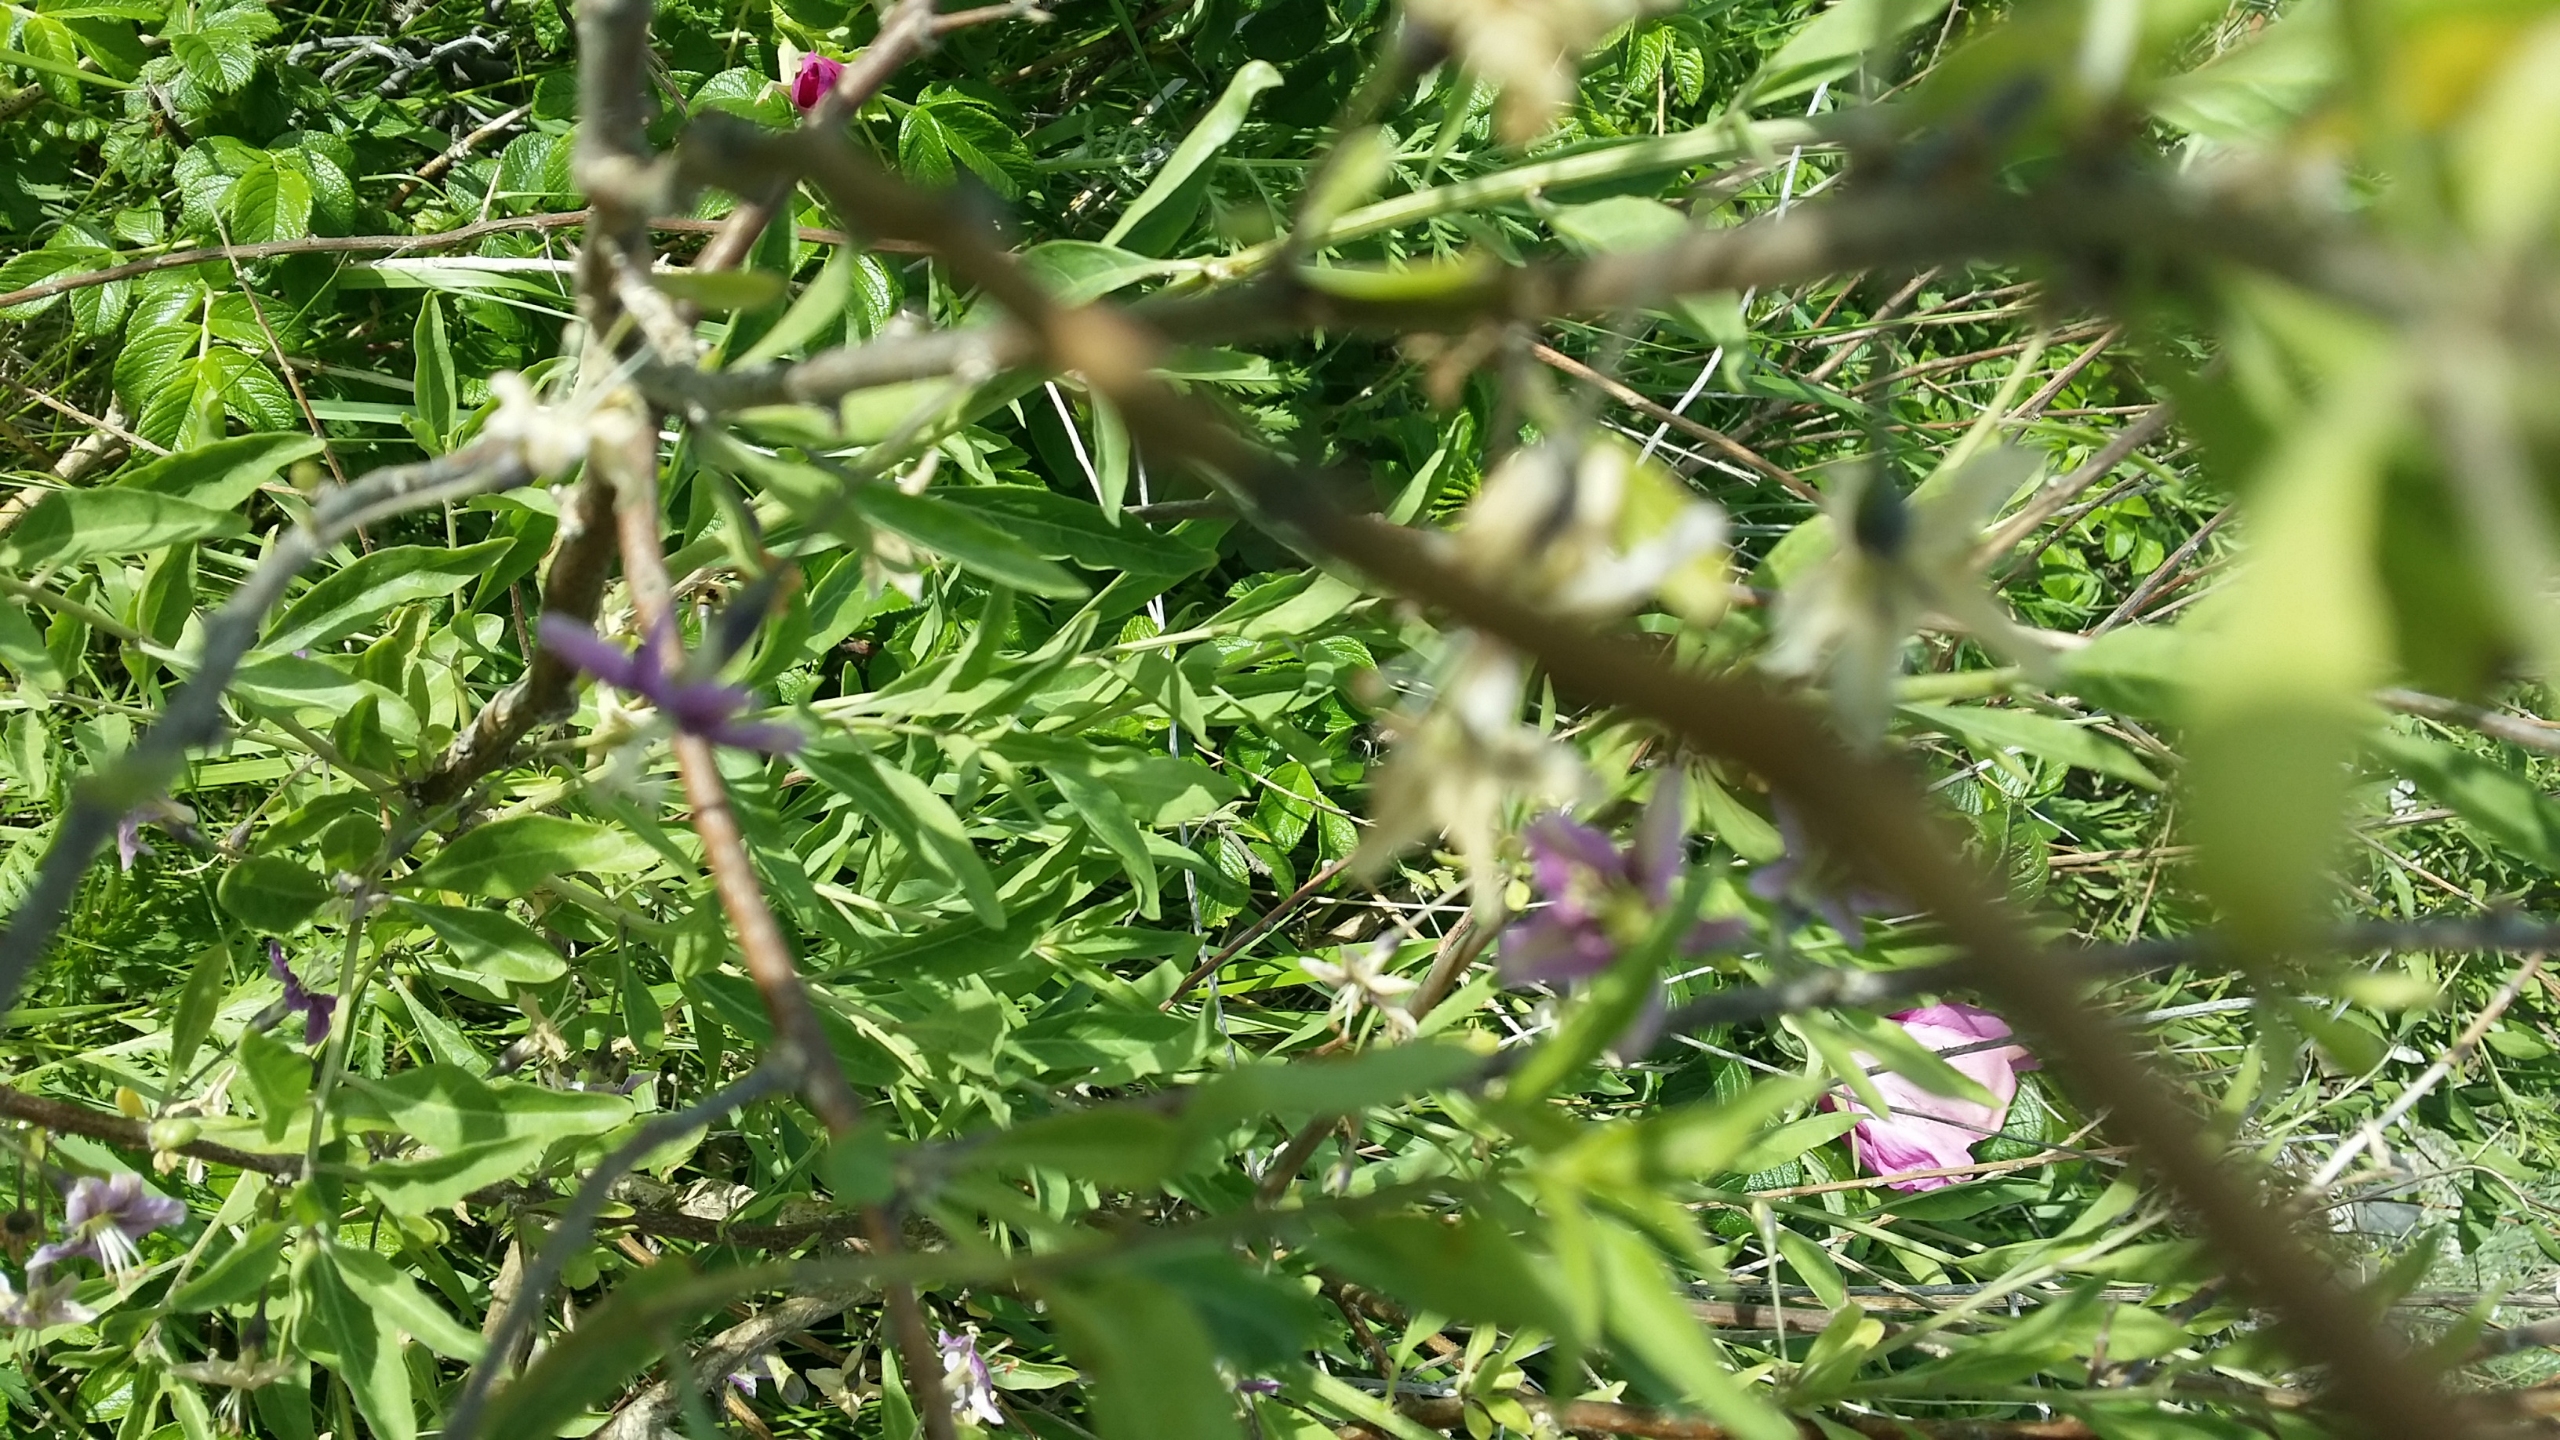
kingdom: Plantae
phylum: Tracheophyta
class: Magnoliopsida
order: Solanales
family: Solanaceae
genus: Lycium
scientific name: Lycium barbarum
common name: Bukketorn
